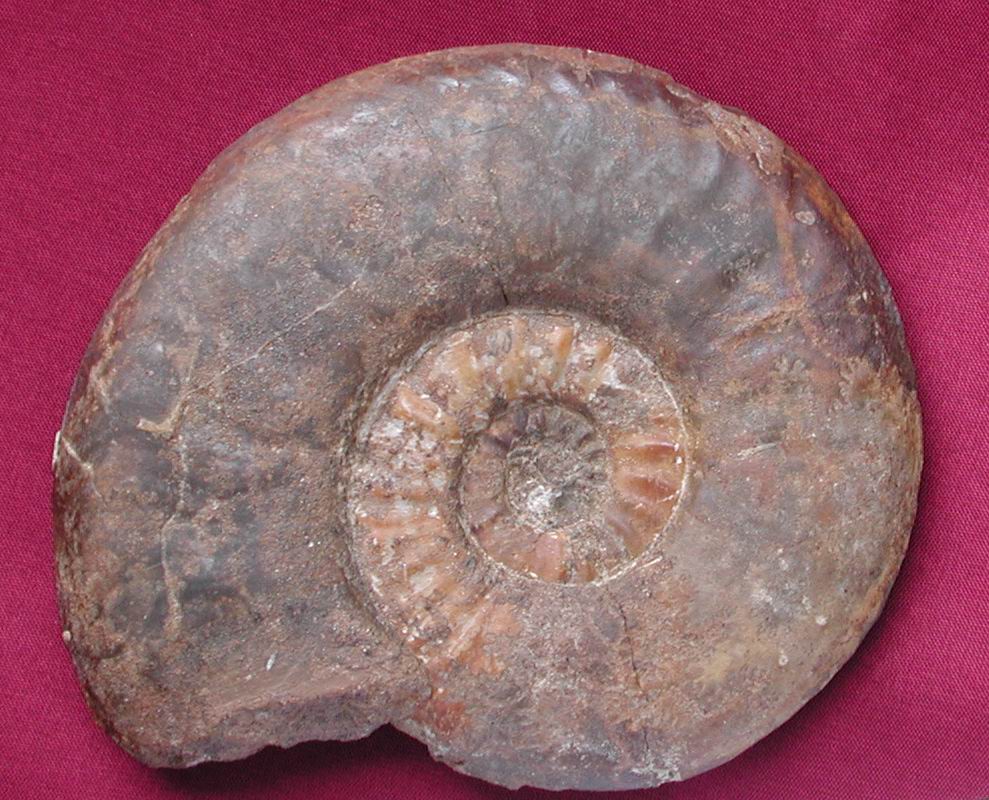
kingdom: Animalia
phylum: Mollusca
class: Cephalopoda
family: Hildoceratidae
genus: Harpoceras
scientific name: Harpoceras
